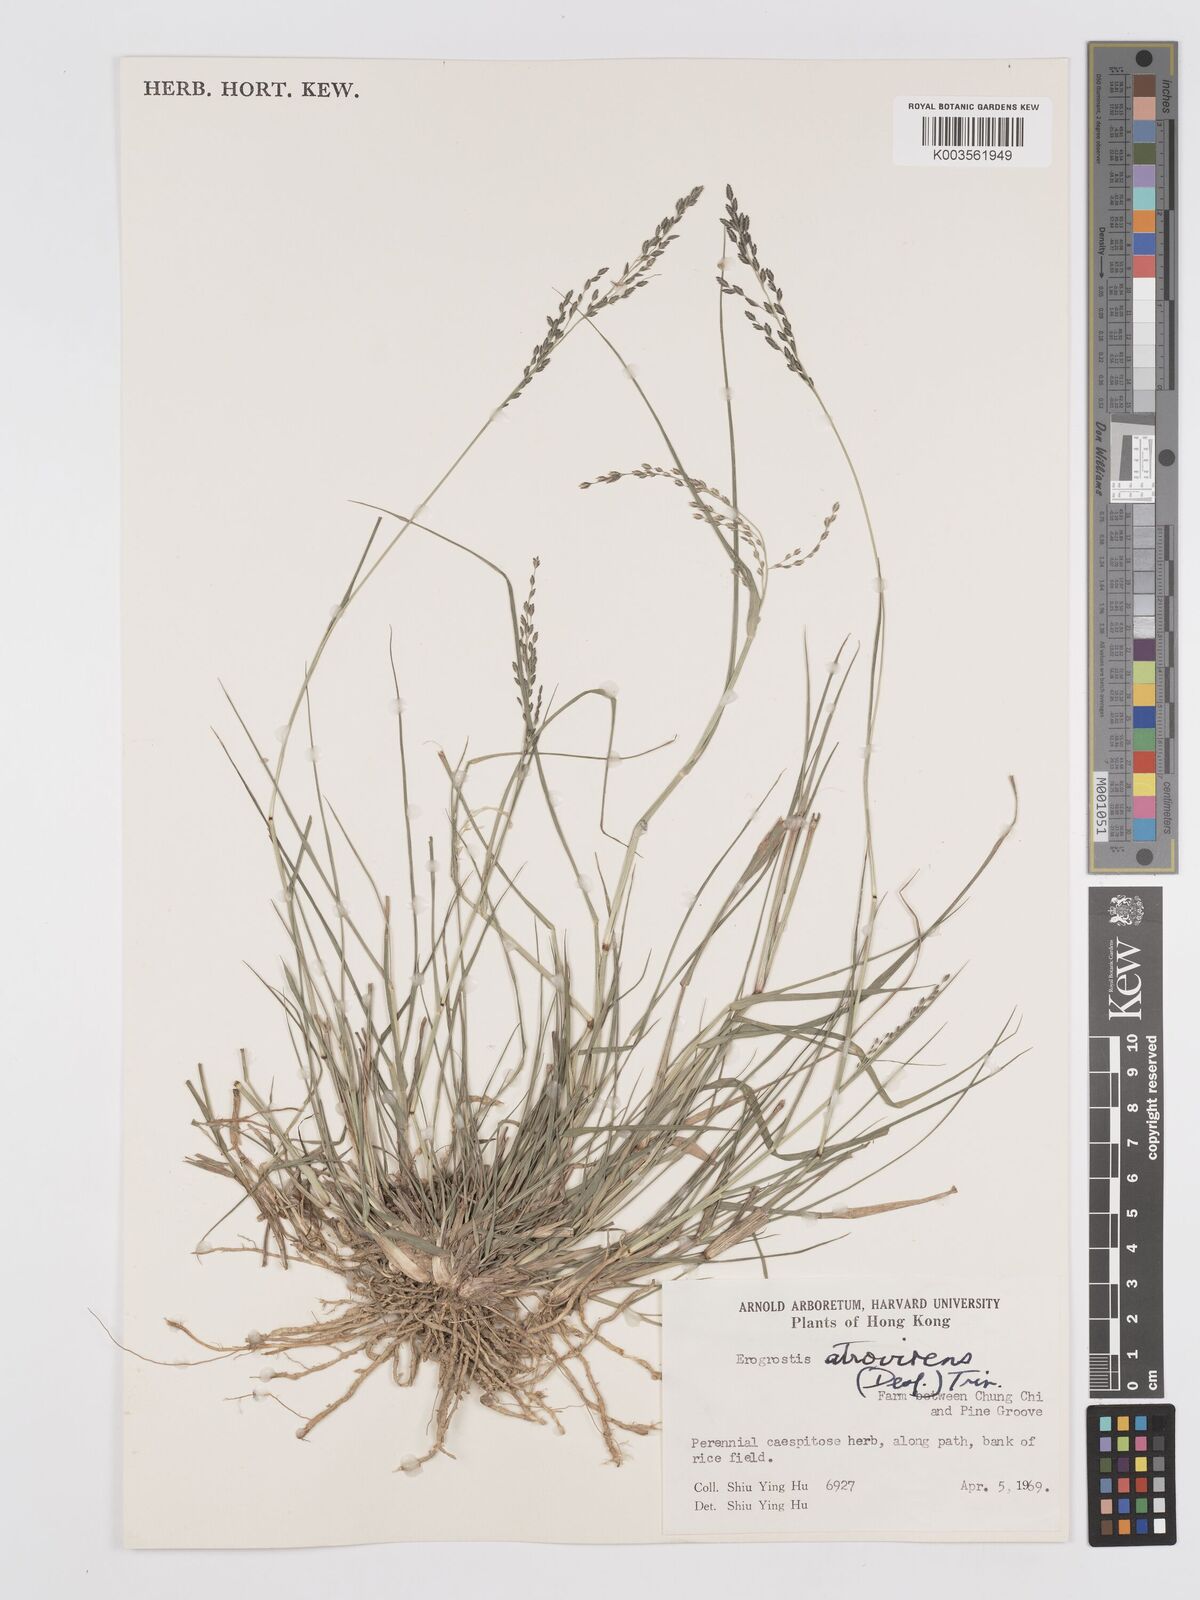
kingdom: Plantae
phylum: Tracheophyta
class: Liliopsida
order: Poales
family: Poaceae
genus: Eragrostis
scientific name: Eragrostis atrovirens
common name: Thalia lovegrass
